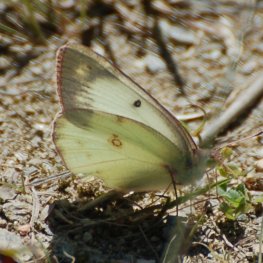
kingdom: Animalia
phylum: Arthropoda
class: Insecta
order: Lepidoptera
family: Pieridae
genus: Colias
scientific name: Colias philodice
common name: Clouded Sulphur
